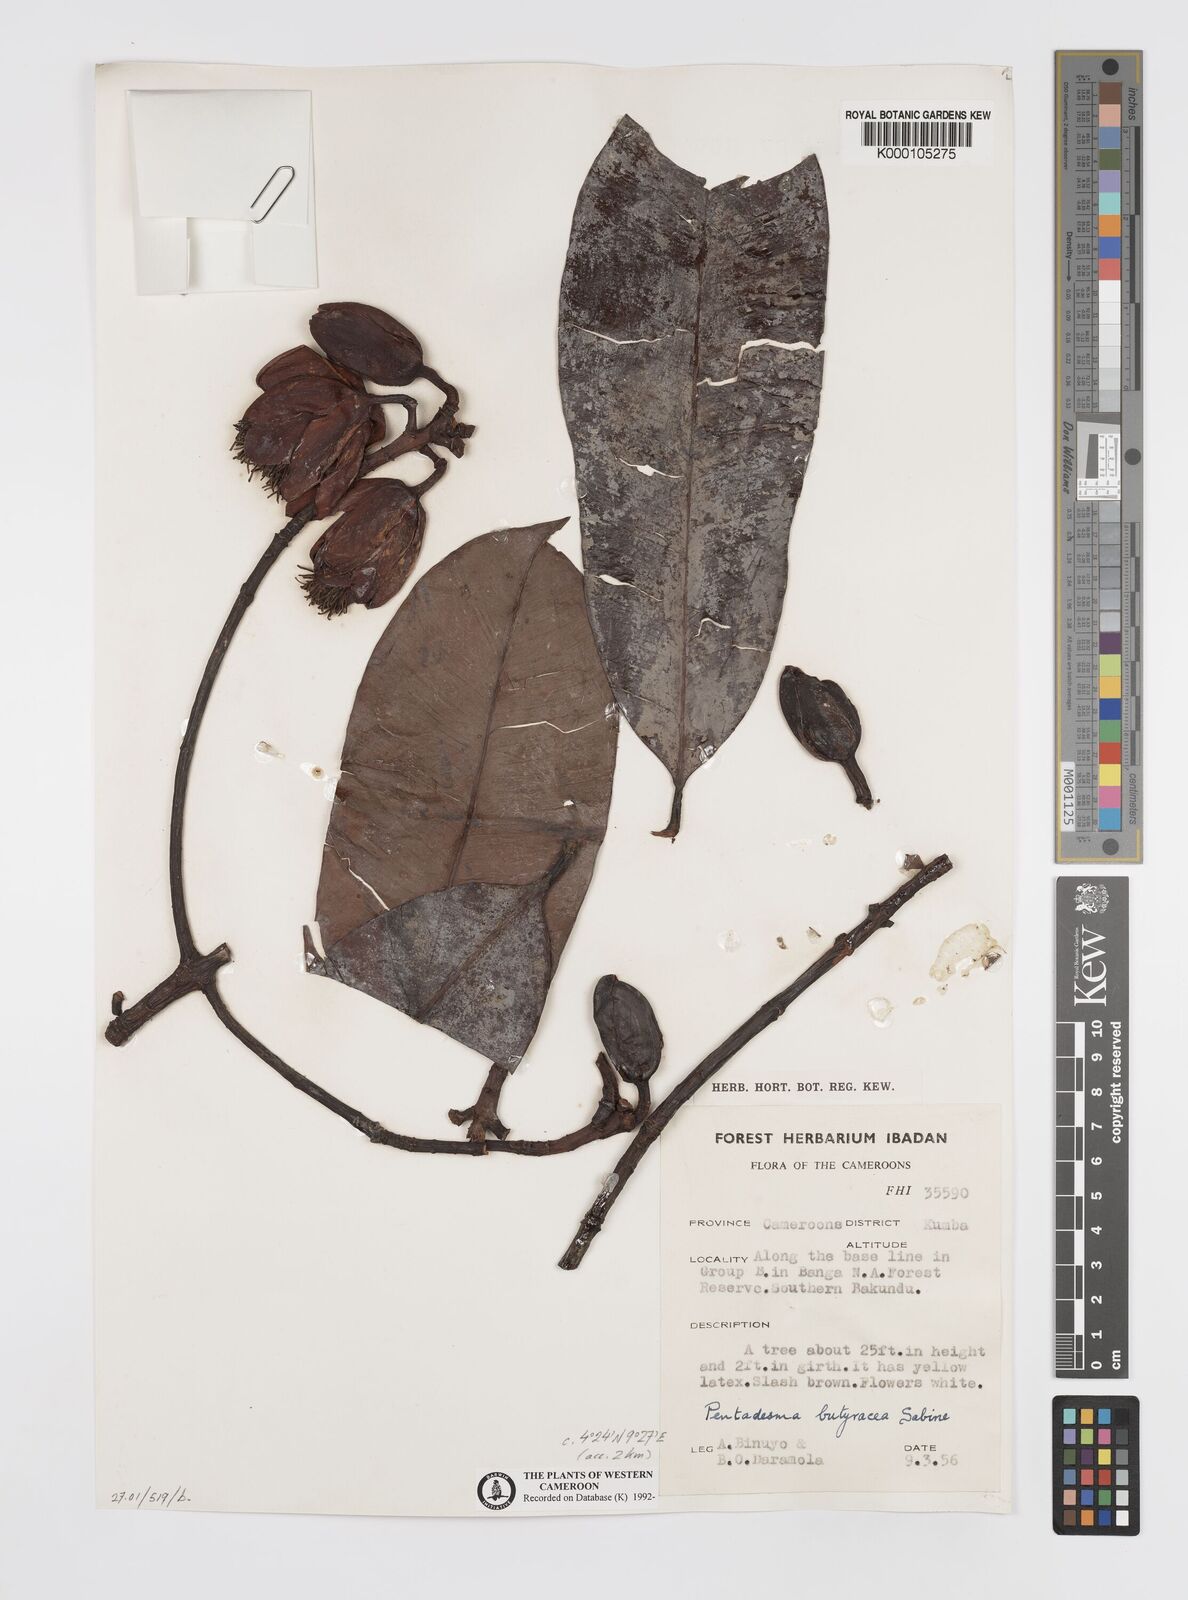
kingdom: Plantae
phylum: Tracheophyta
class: Magnoliopsida
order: Malpighiales
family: Clusiaceae
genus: Pentadesma
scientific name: Pentadesma butyracea
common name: Buttertree
